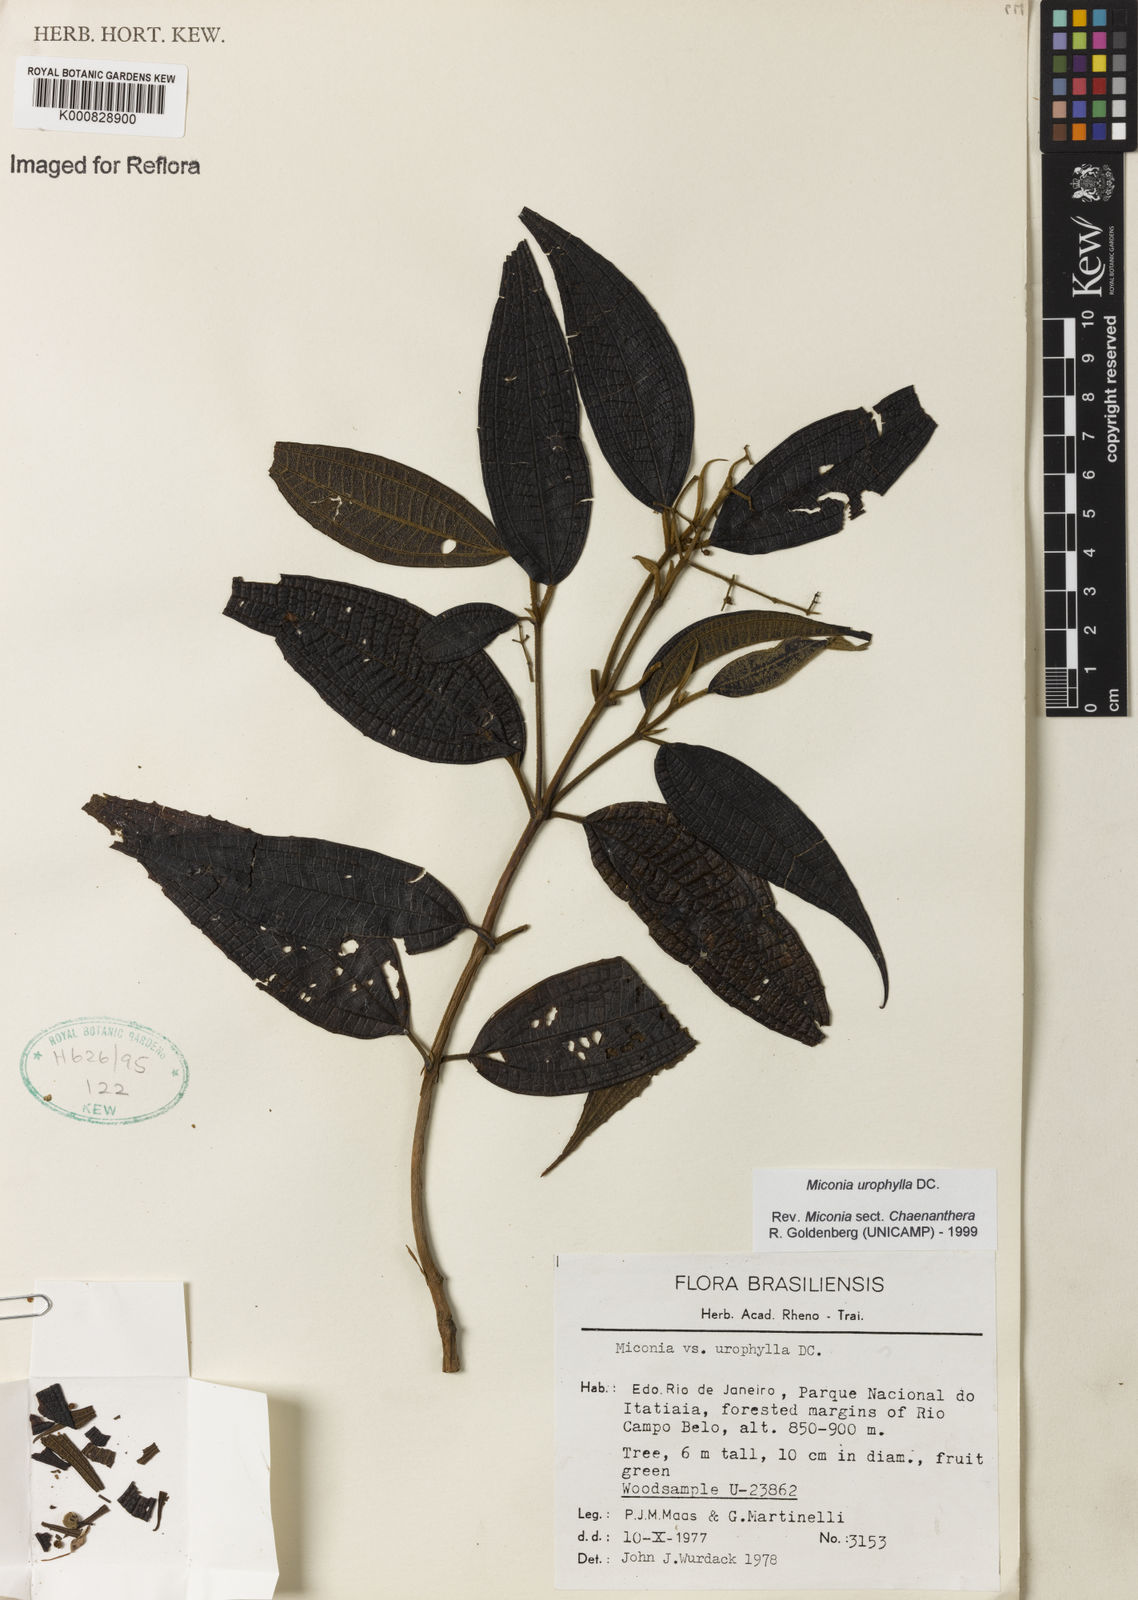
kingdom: Plantae
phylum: Tracheophyta
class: Magnoliopsida
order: Myrtales
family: Melastomataceae
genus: Miconia
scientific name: Miconia urophylla
